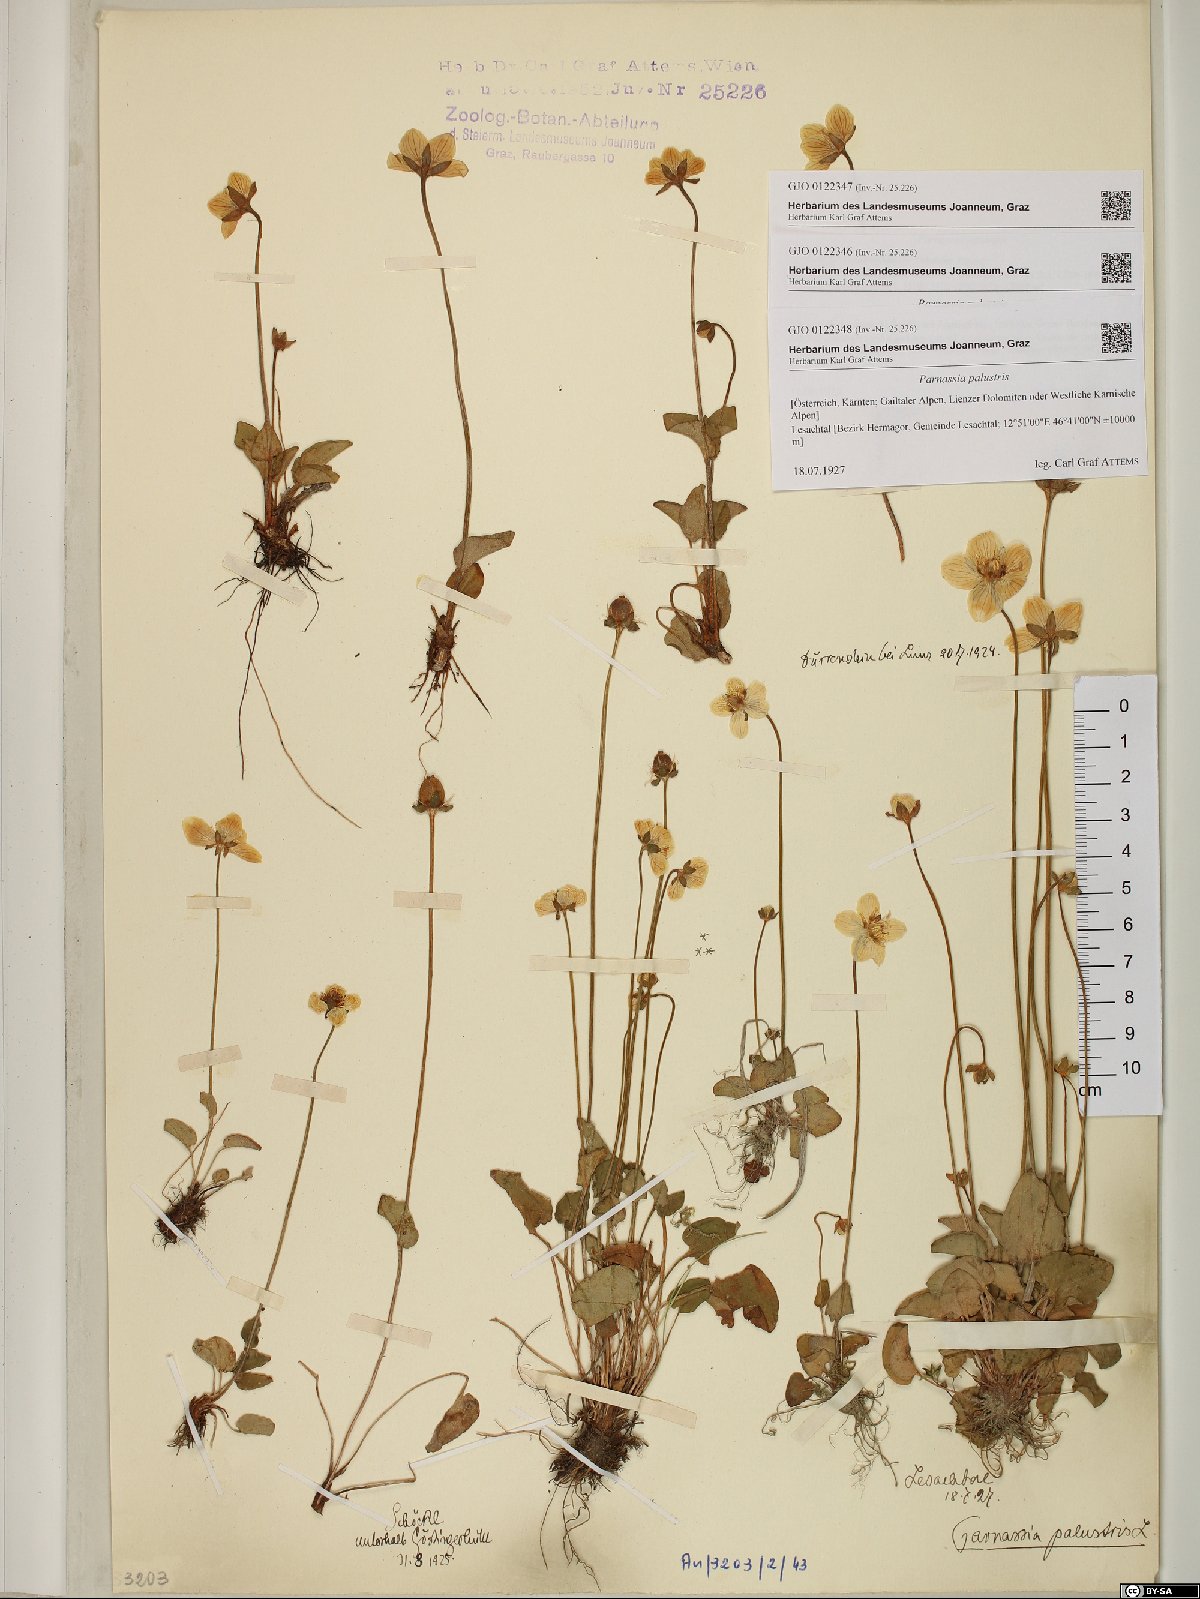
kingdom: Plantae
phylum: Tracheophyta
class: Magnoliopsida
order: Celastrales
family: Parnassiaceae
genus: Parnassia
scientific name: Parnassia palustris
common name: Grass-of-parnassus
